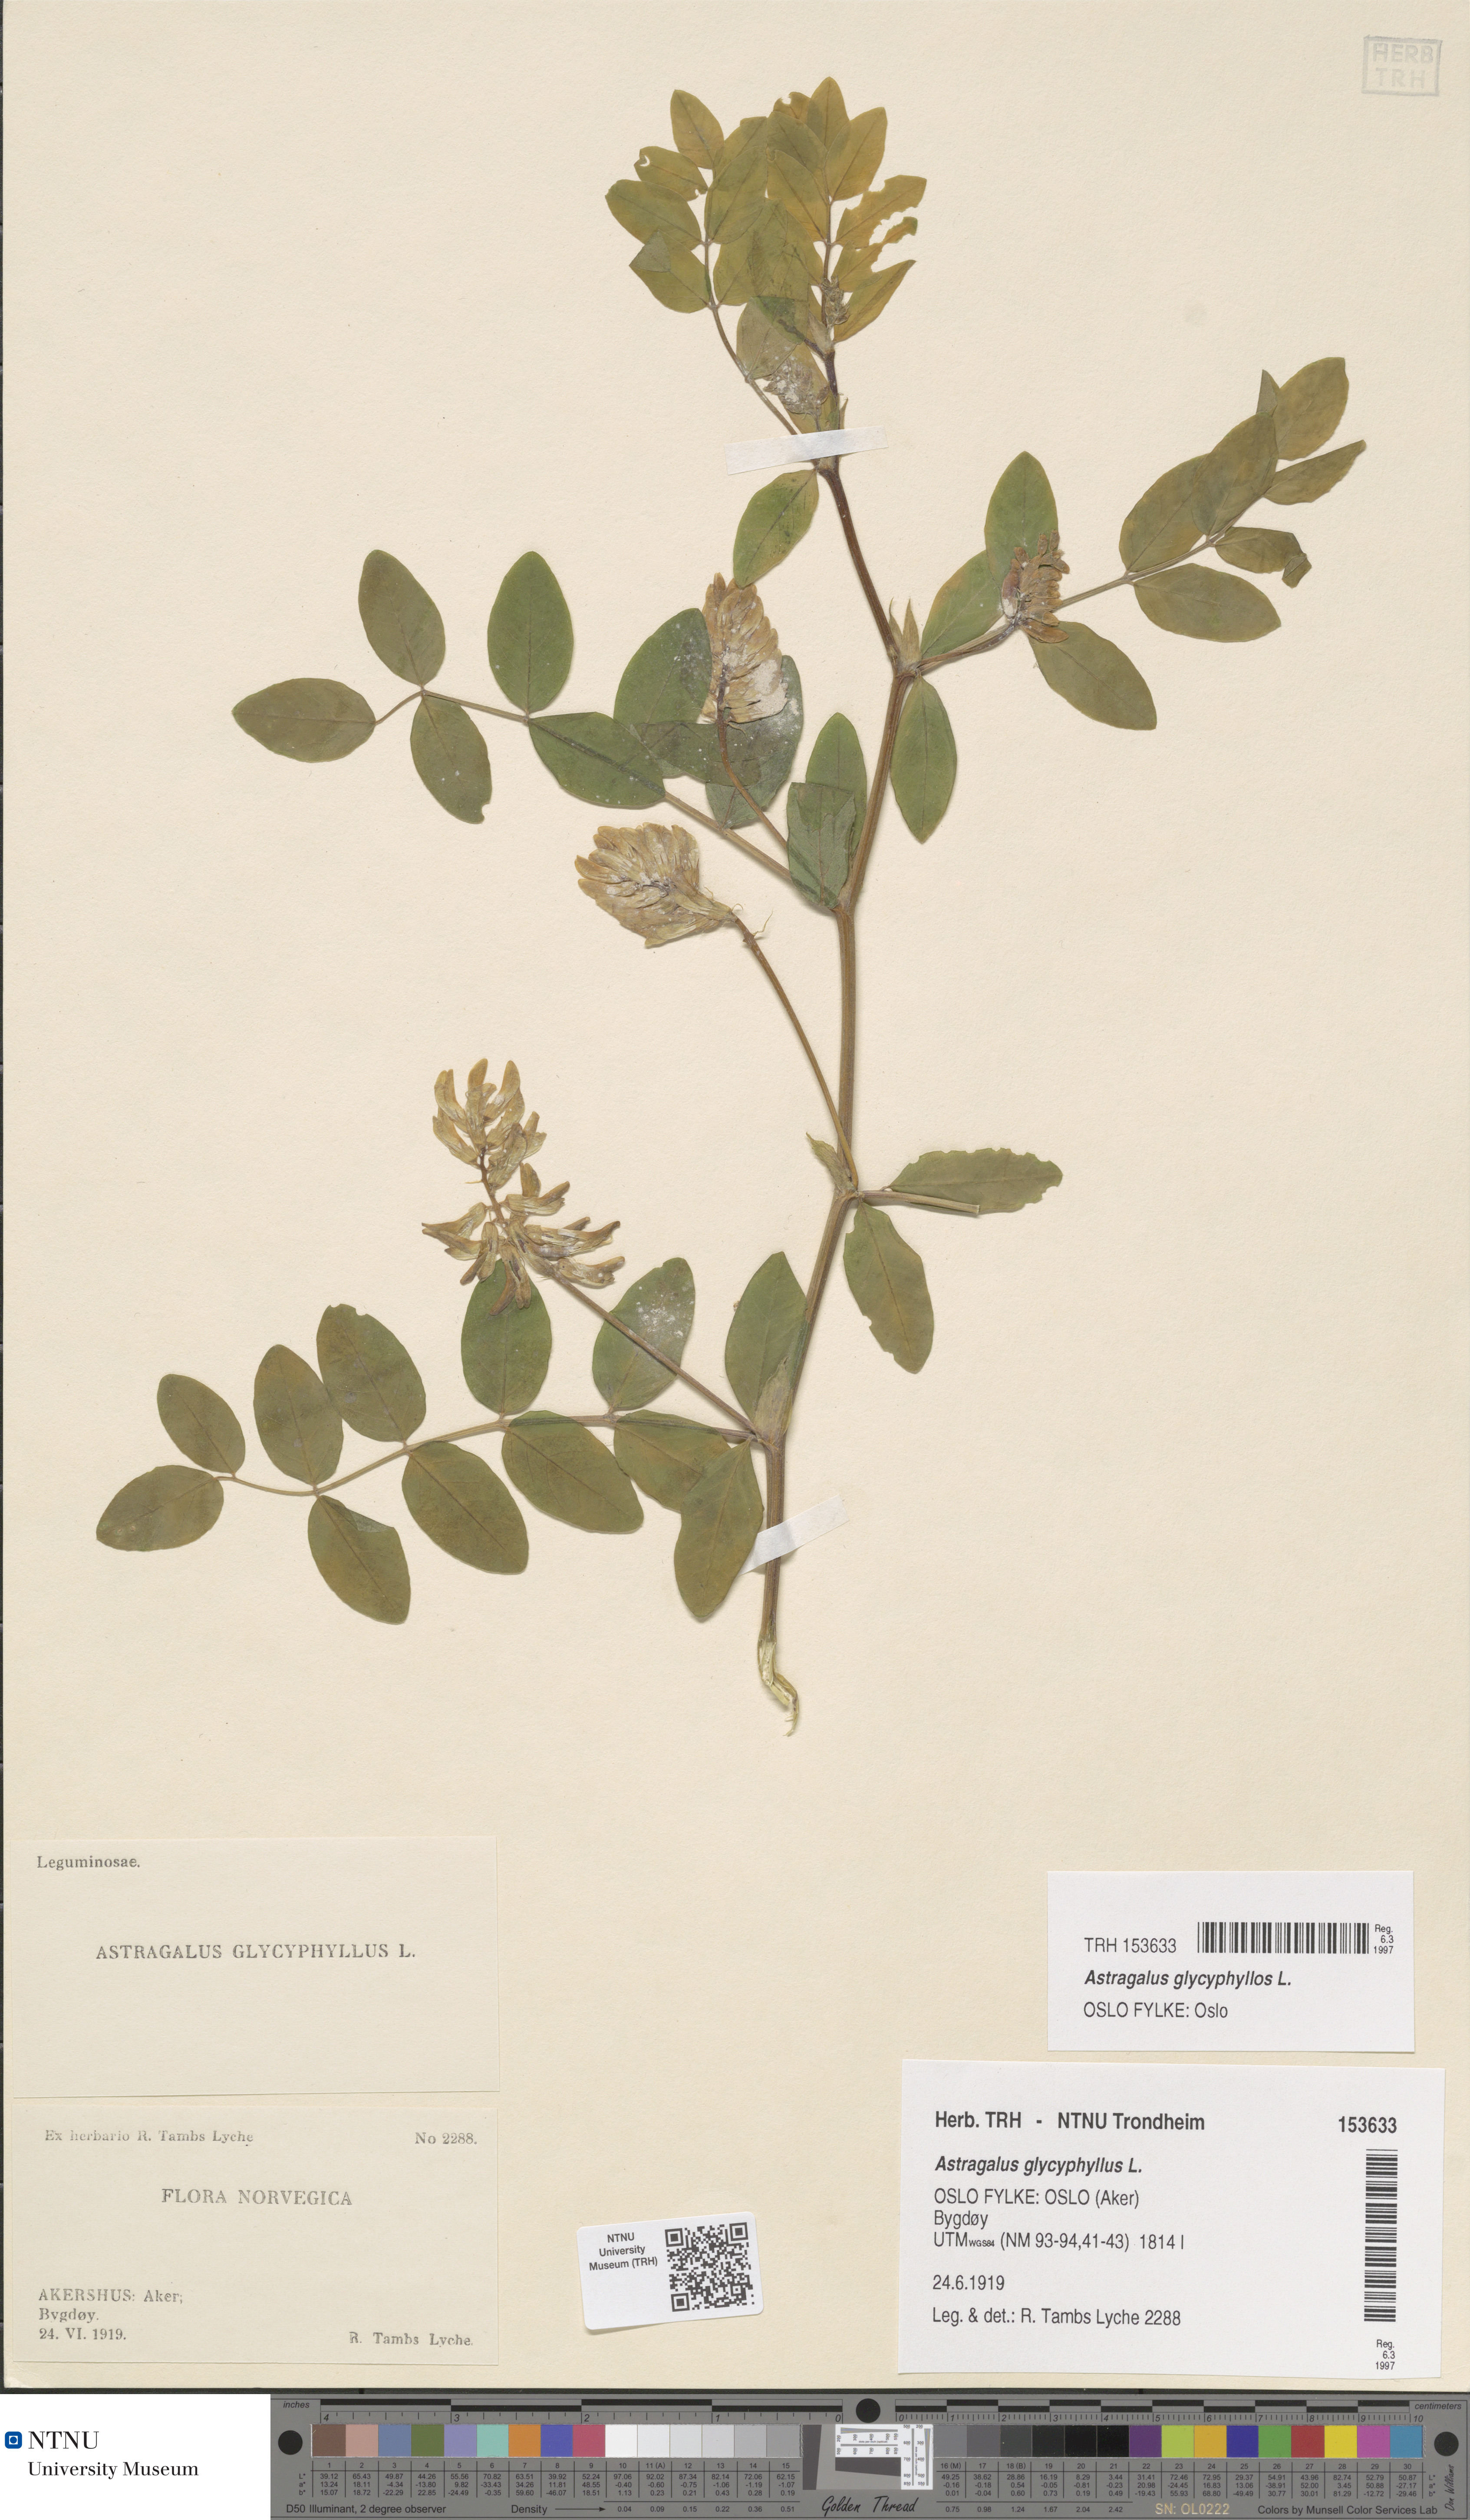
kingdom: Plantae
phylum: Tracheophyta
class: Magnoliopsida
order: Fabales
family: Fabaceae
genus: Astragalus
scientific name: Astragalus glycyphyllos
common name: Wild liquorice
